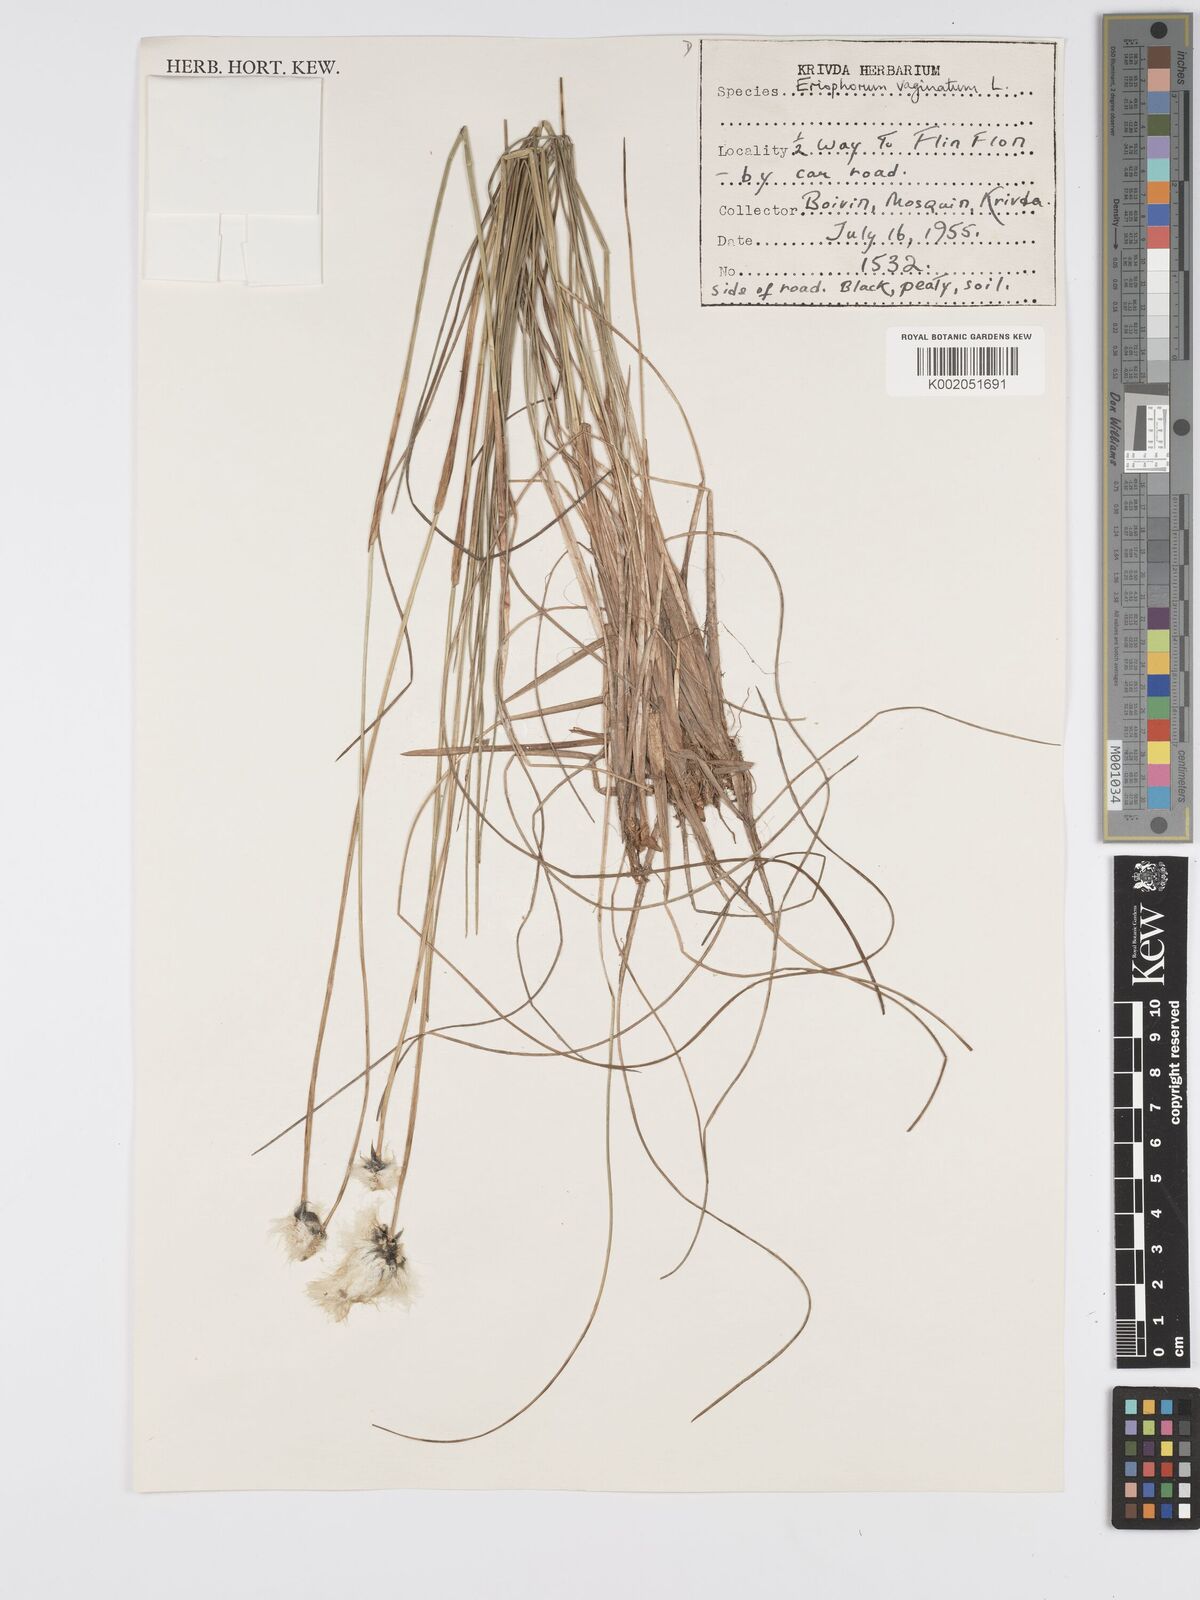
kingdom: Plantae
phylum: Tracheophyta
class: Liliopsida
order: Poales
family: Cyperaceae
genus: Eriophorum
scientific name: Eriophorum vaginatum
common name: Hare's-tail cottongrass
